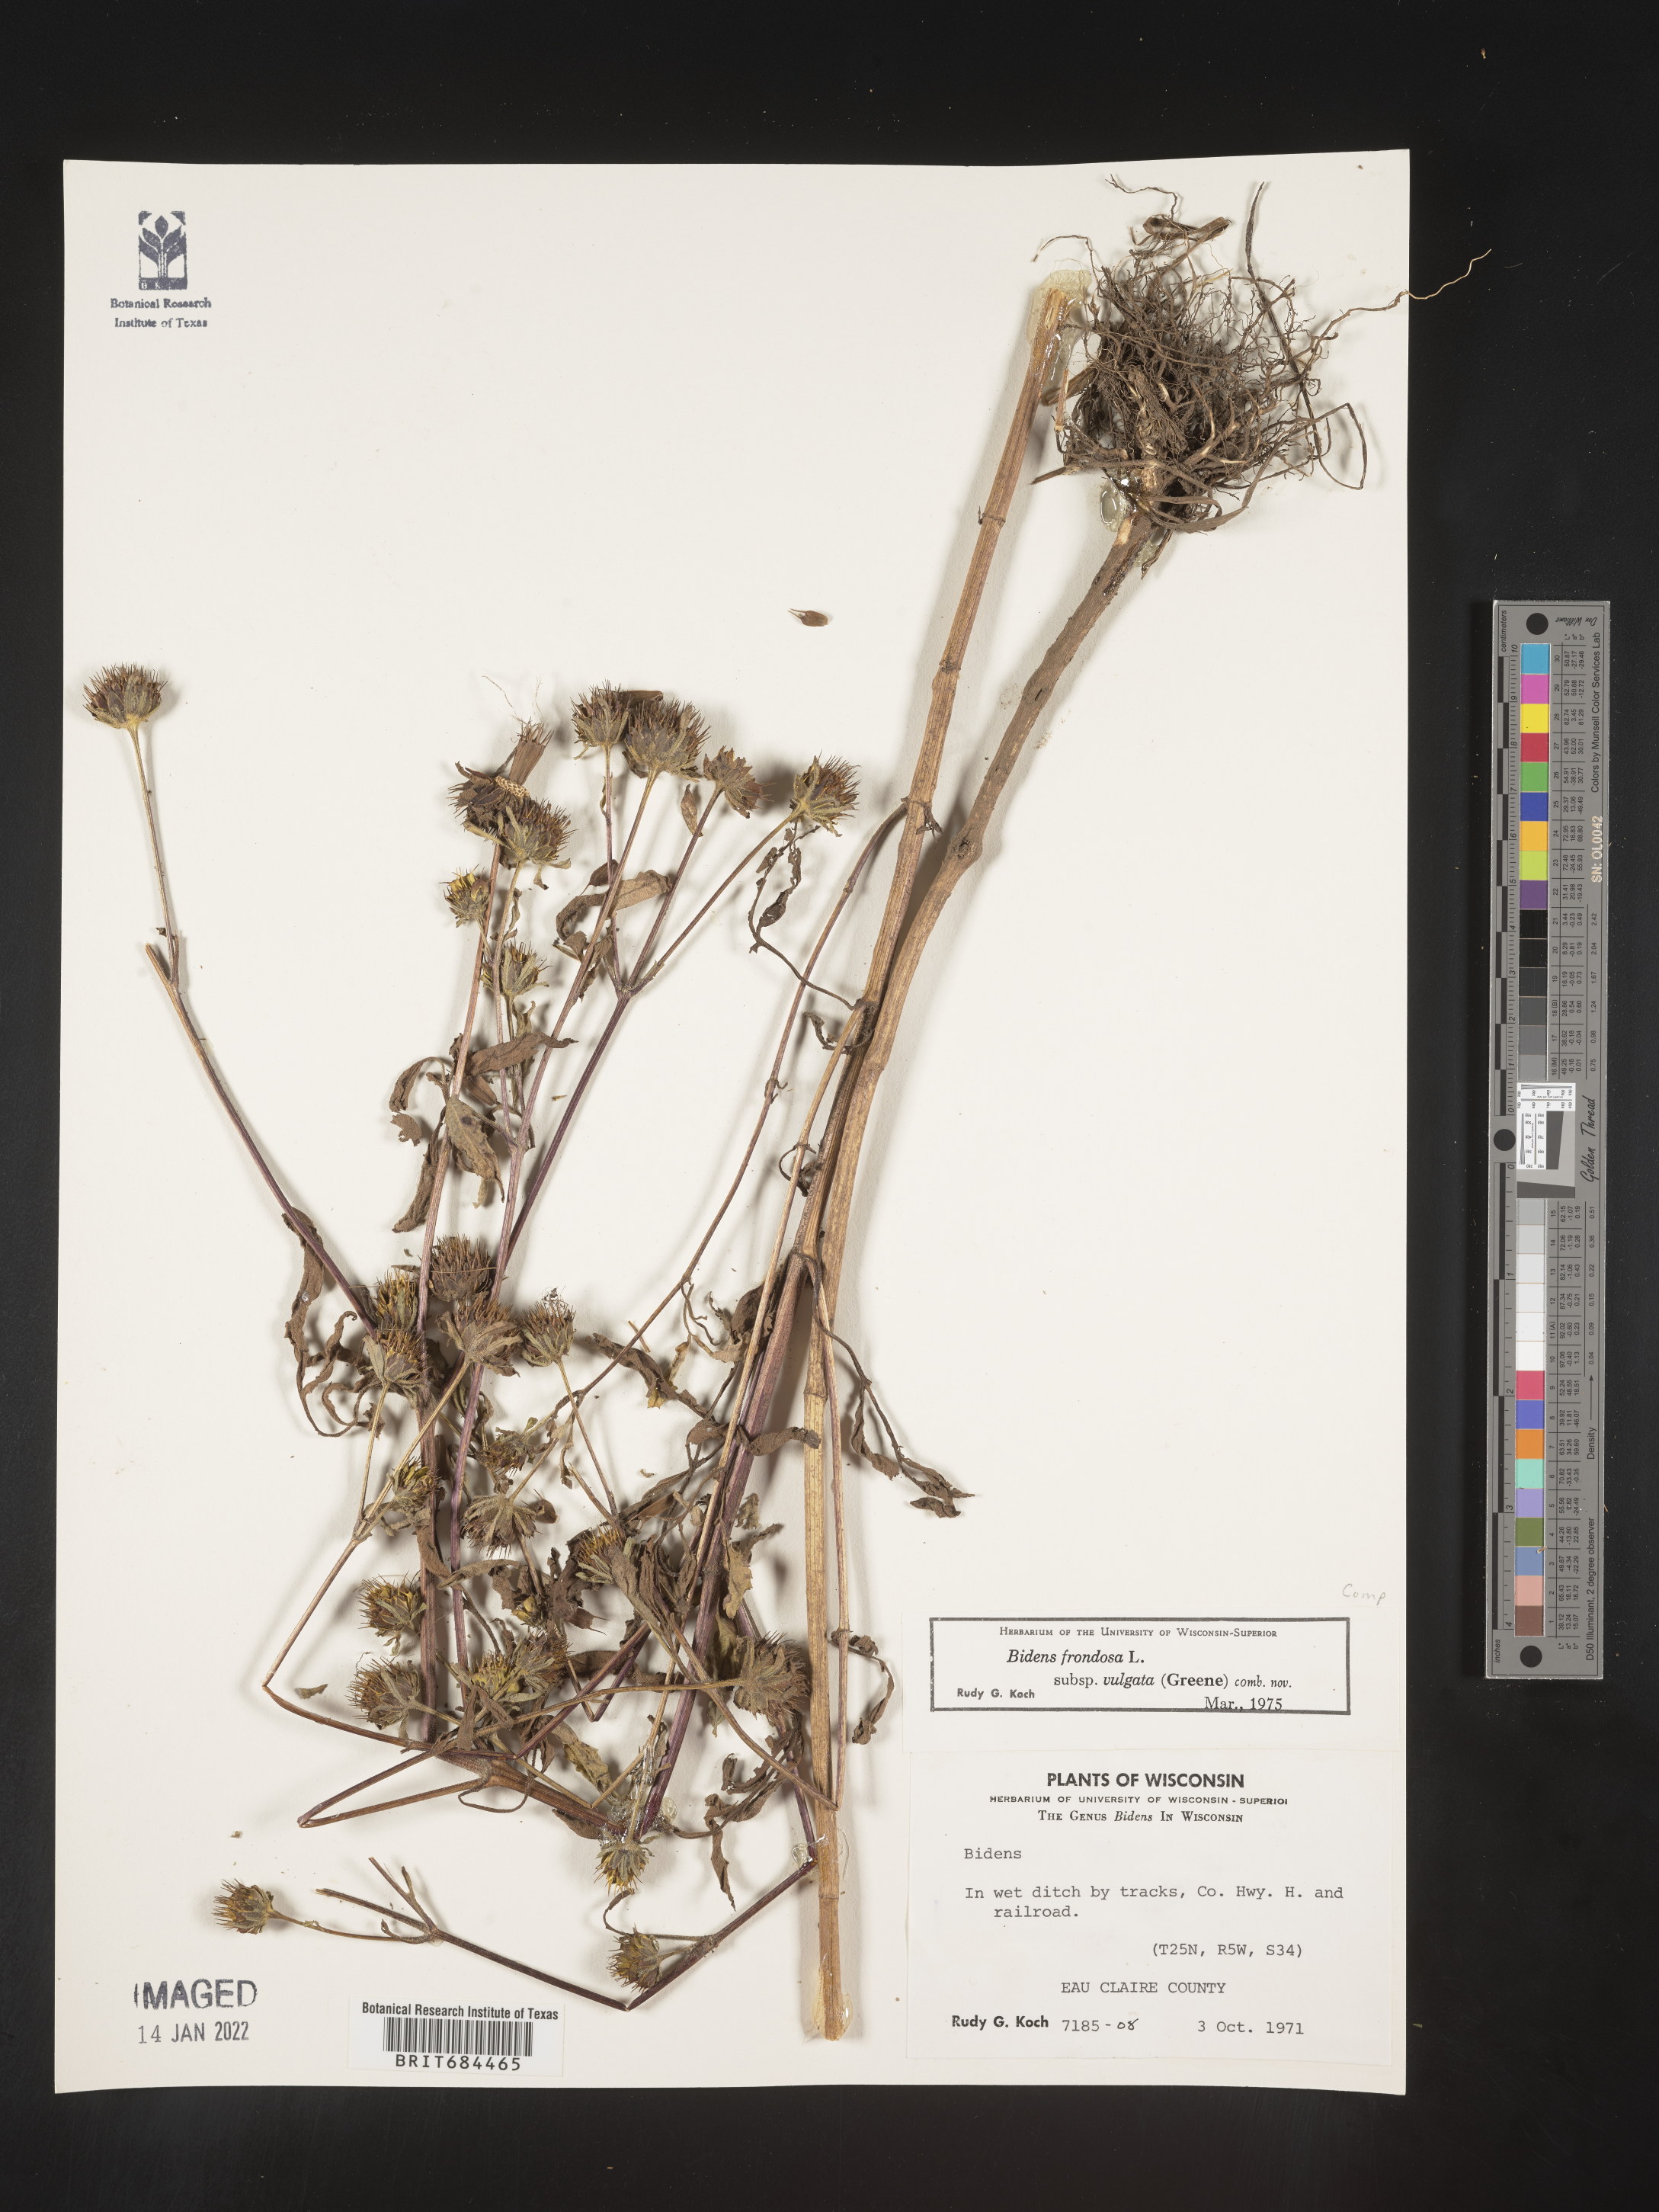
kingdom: Plantae
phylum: Tracheophyta
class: Magnoliopsida
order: Asterales
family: Asteraceae
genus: Bidens
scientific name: Bidens frondosa
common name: Beggarticks
